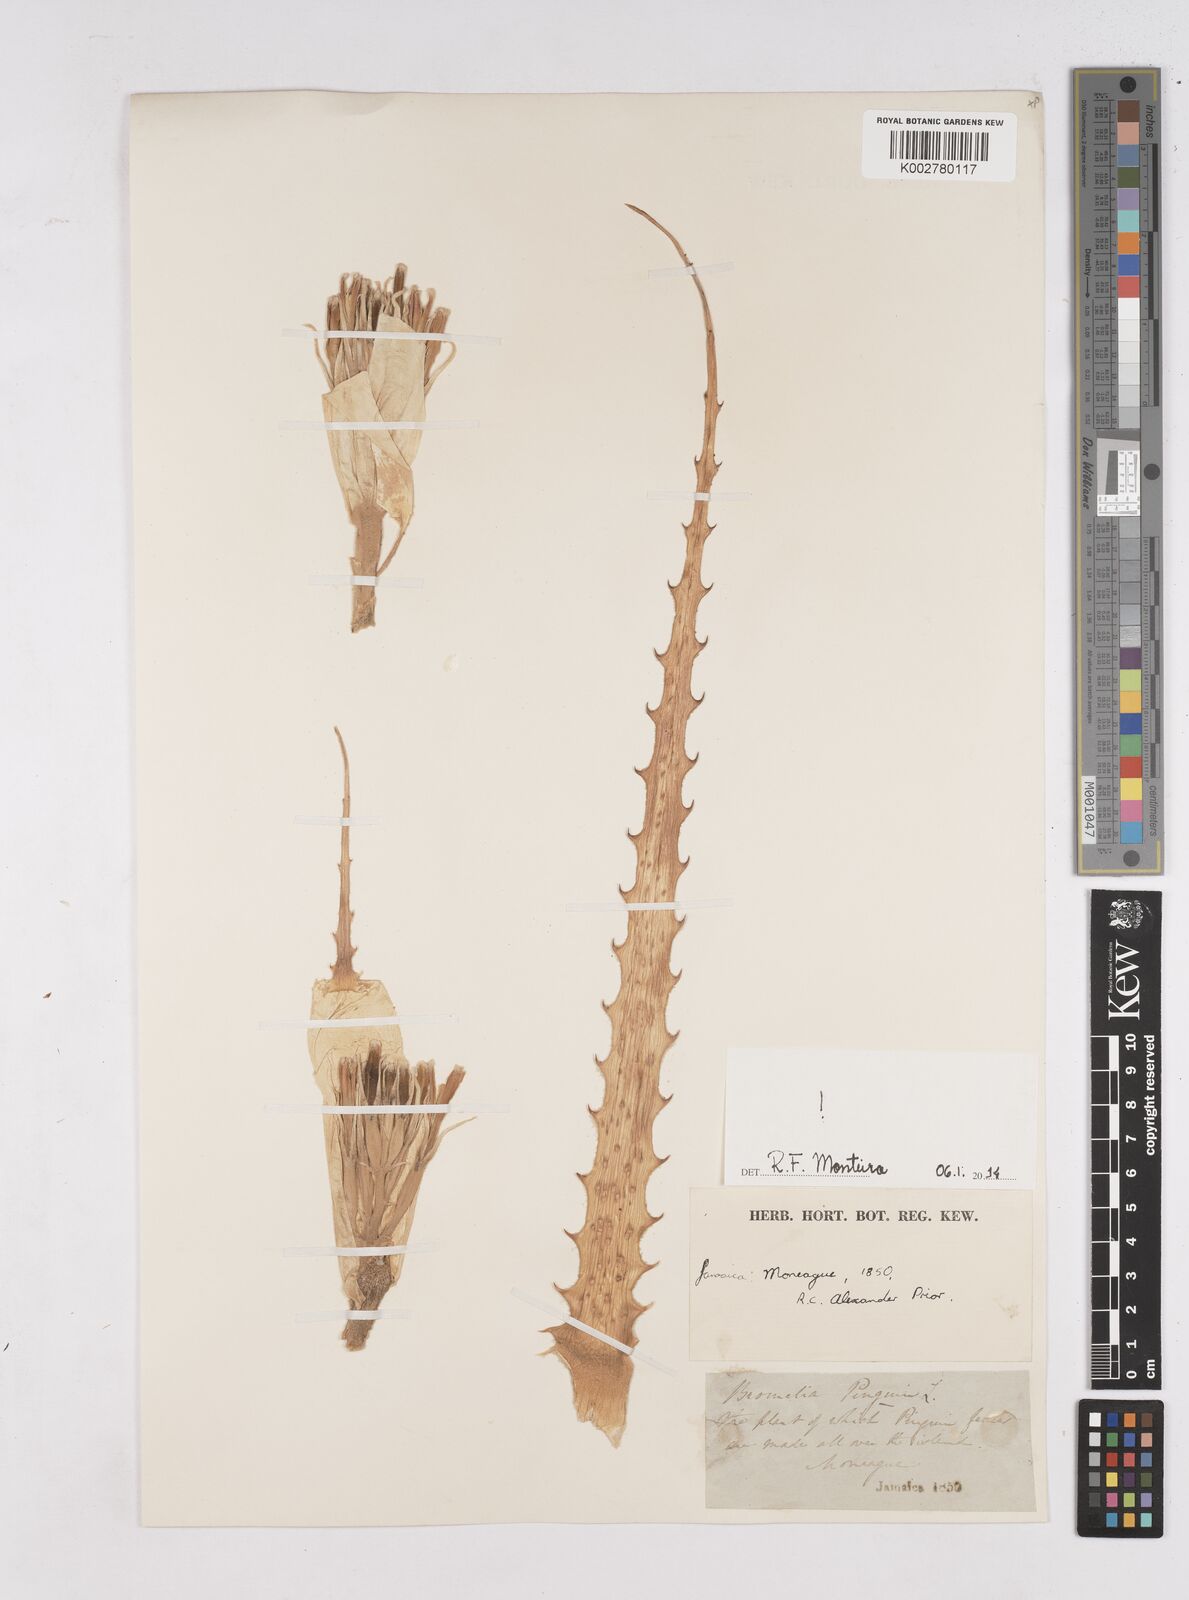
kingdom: Plantae
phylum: Tracheophyta
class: Liliopsida
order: Poales
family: Bromeliaceae
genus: Bromelia
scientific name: Bromelia pinguin
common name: Pinguin
